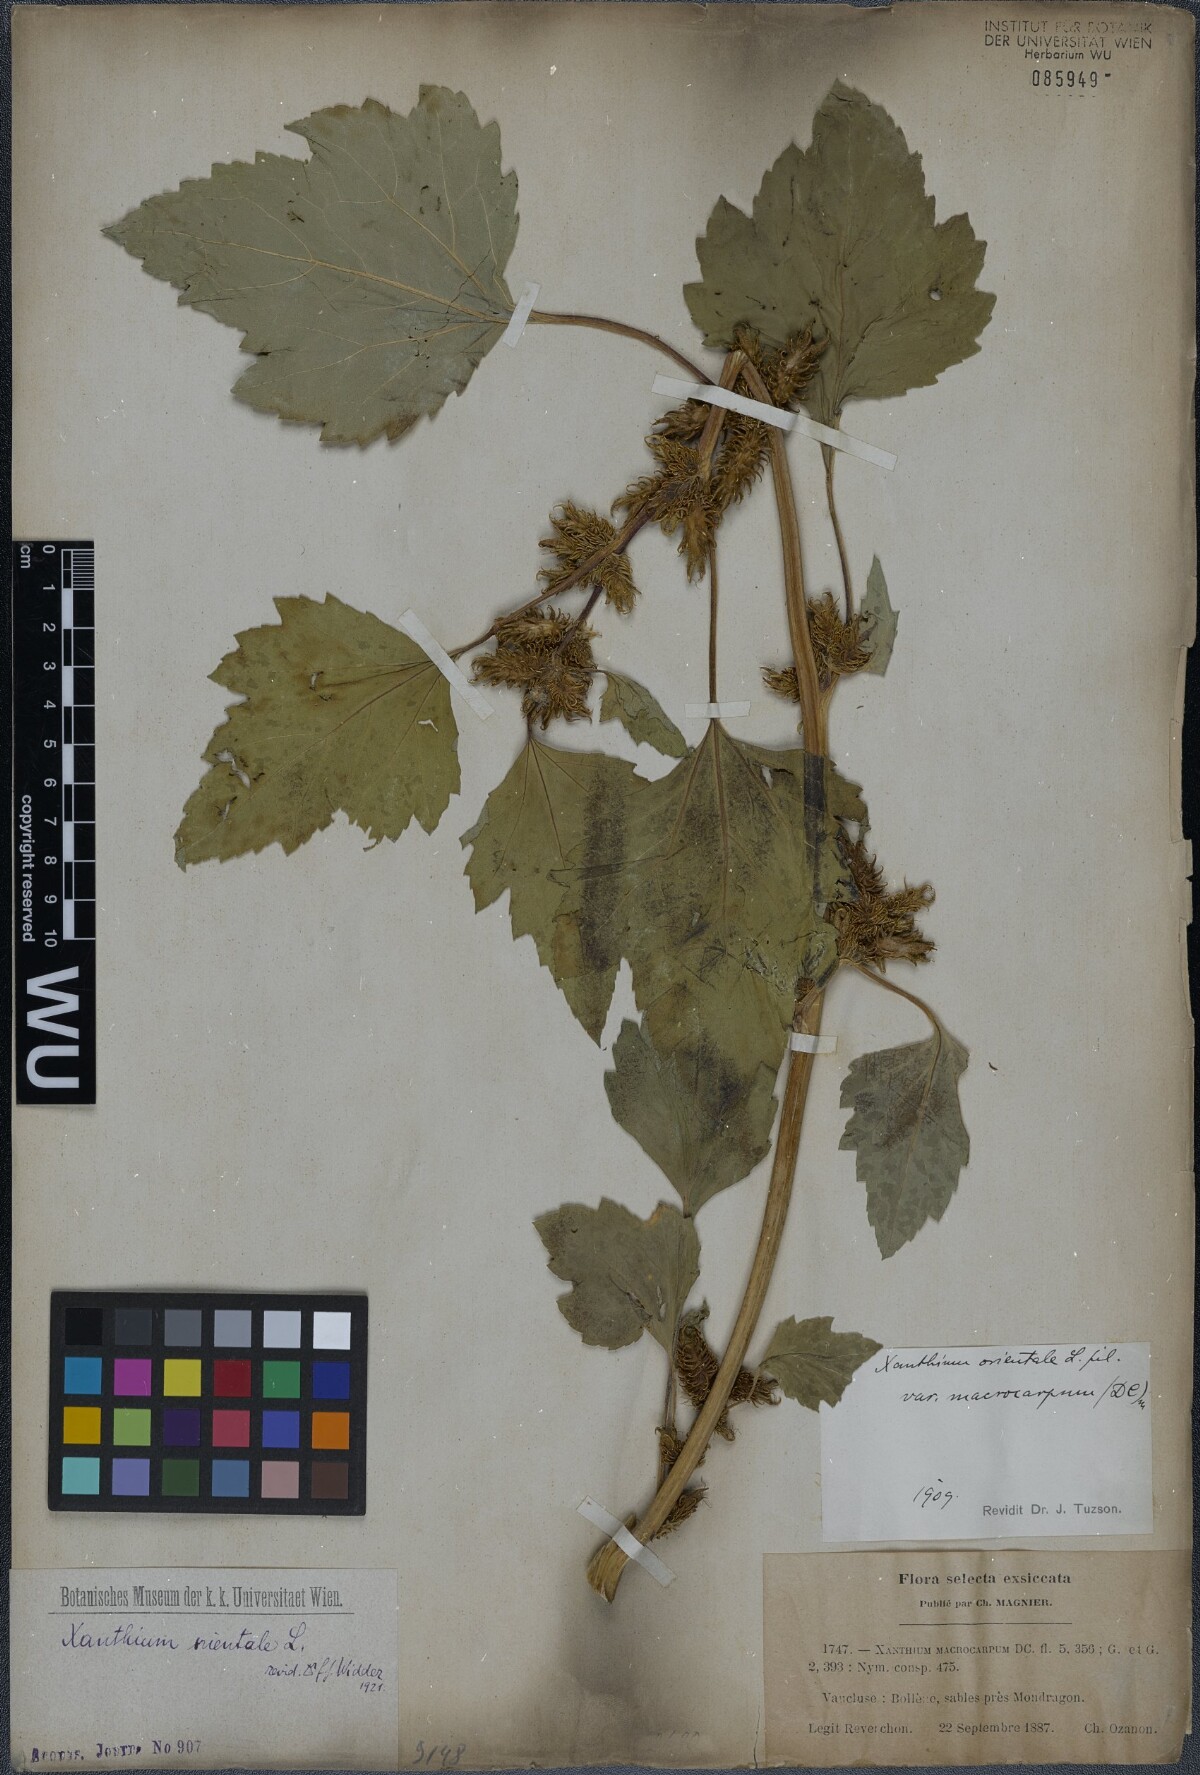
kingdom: Plantae
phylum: Tracheophyta
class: Magnoliopsida
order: Asterales
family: Asteraceae
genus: Xanthium
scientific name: Xanthium orientale
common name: Californian burr
